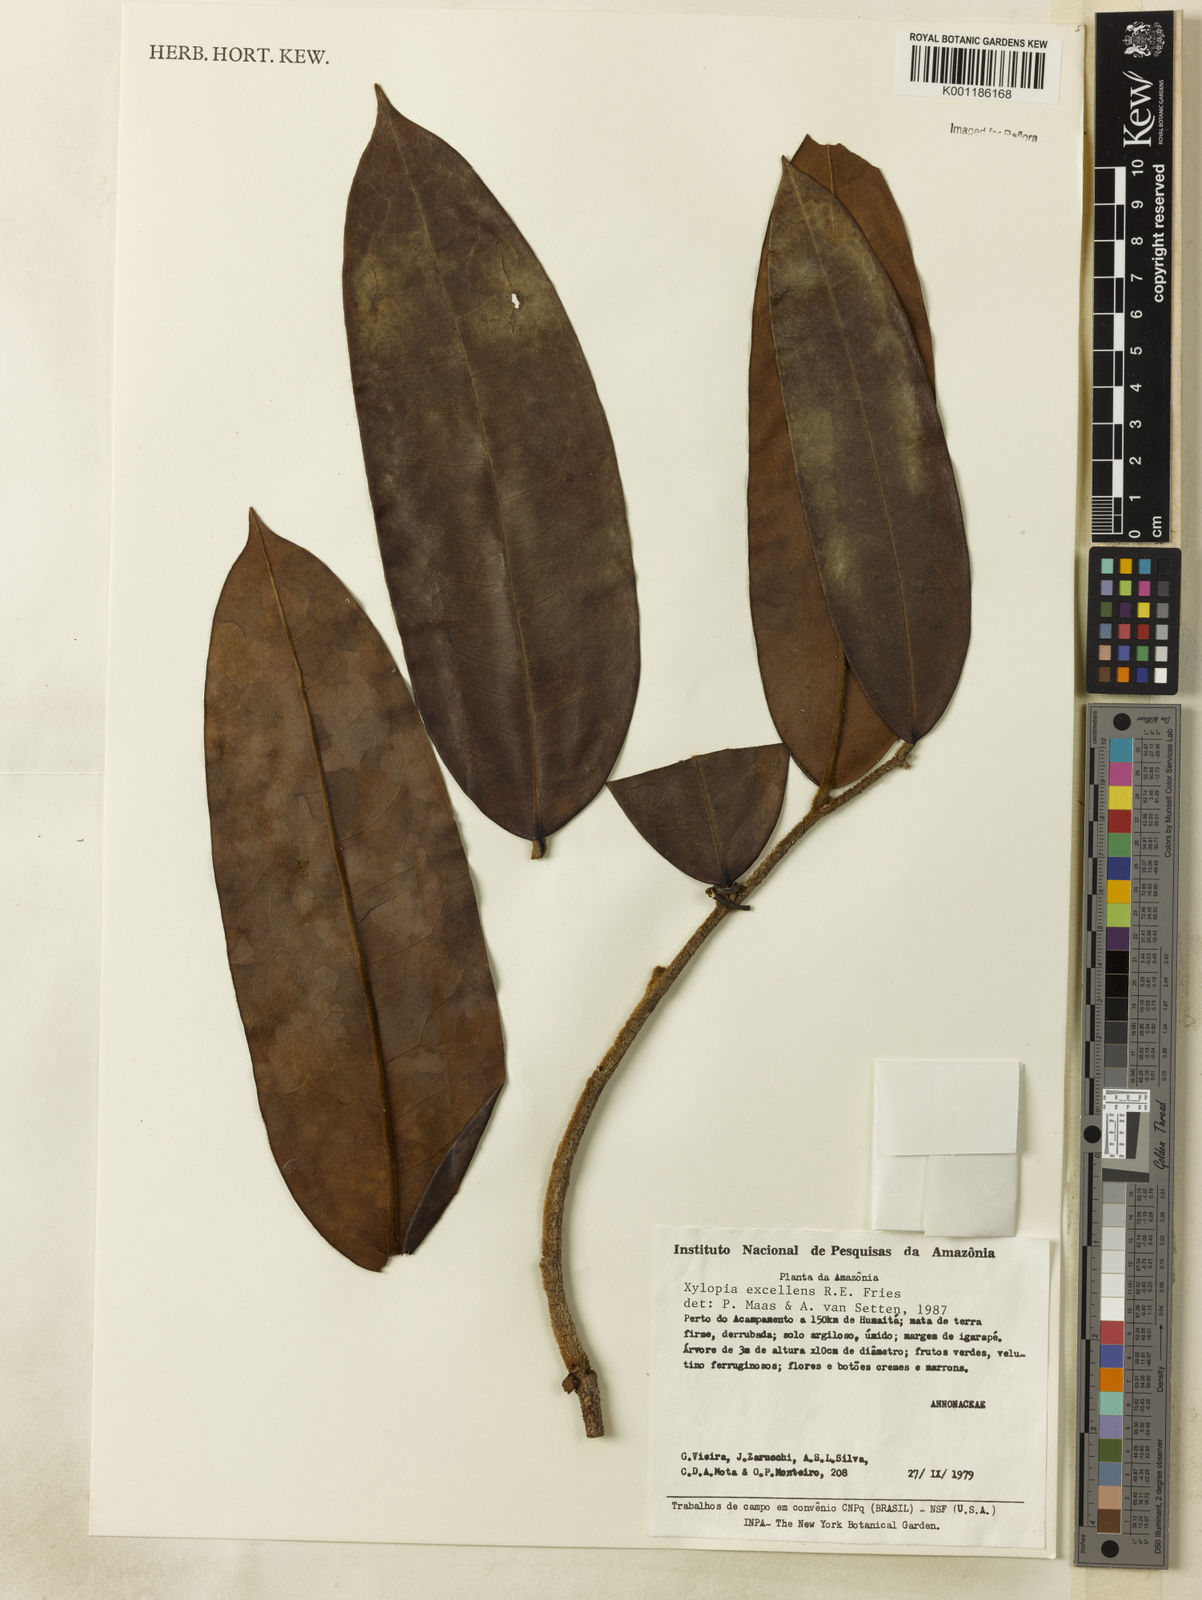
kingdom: Plantae
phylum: Tracheophyta
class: Magnoliopsida
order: Magnoliales
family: Annonaceae
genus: Xylopia
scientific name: Xylopia excellens
